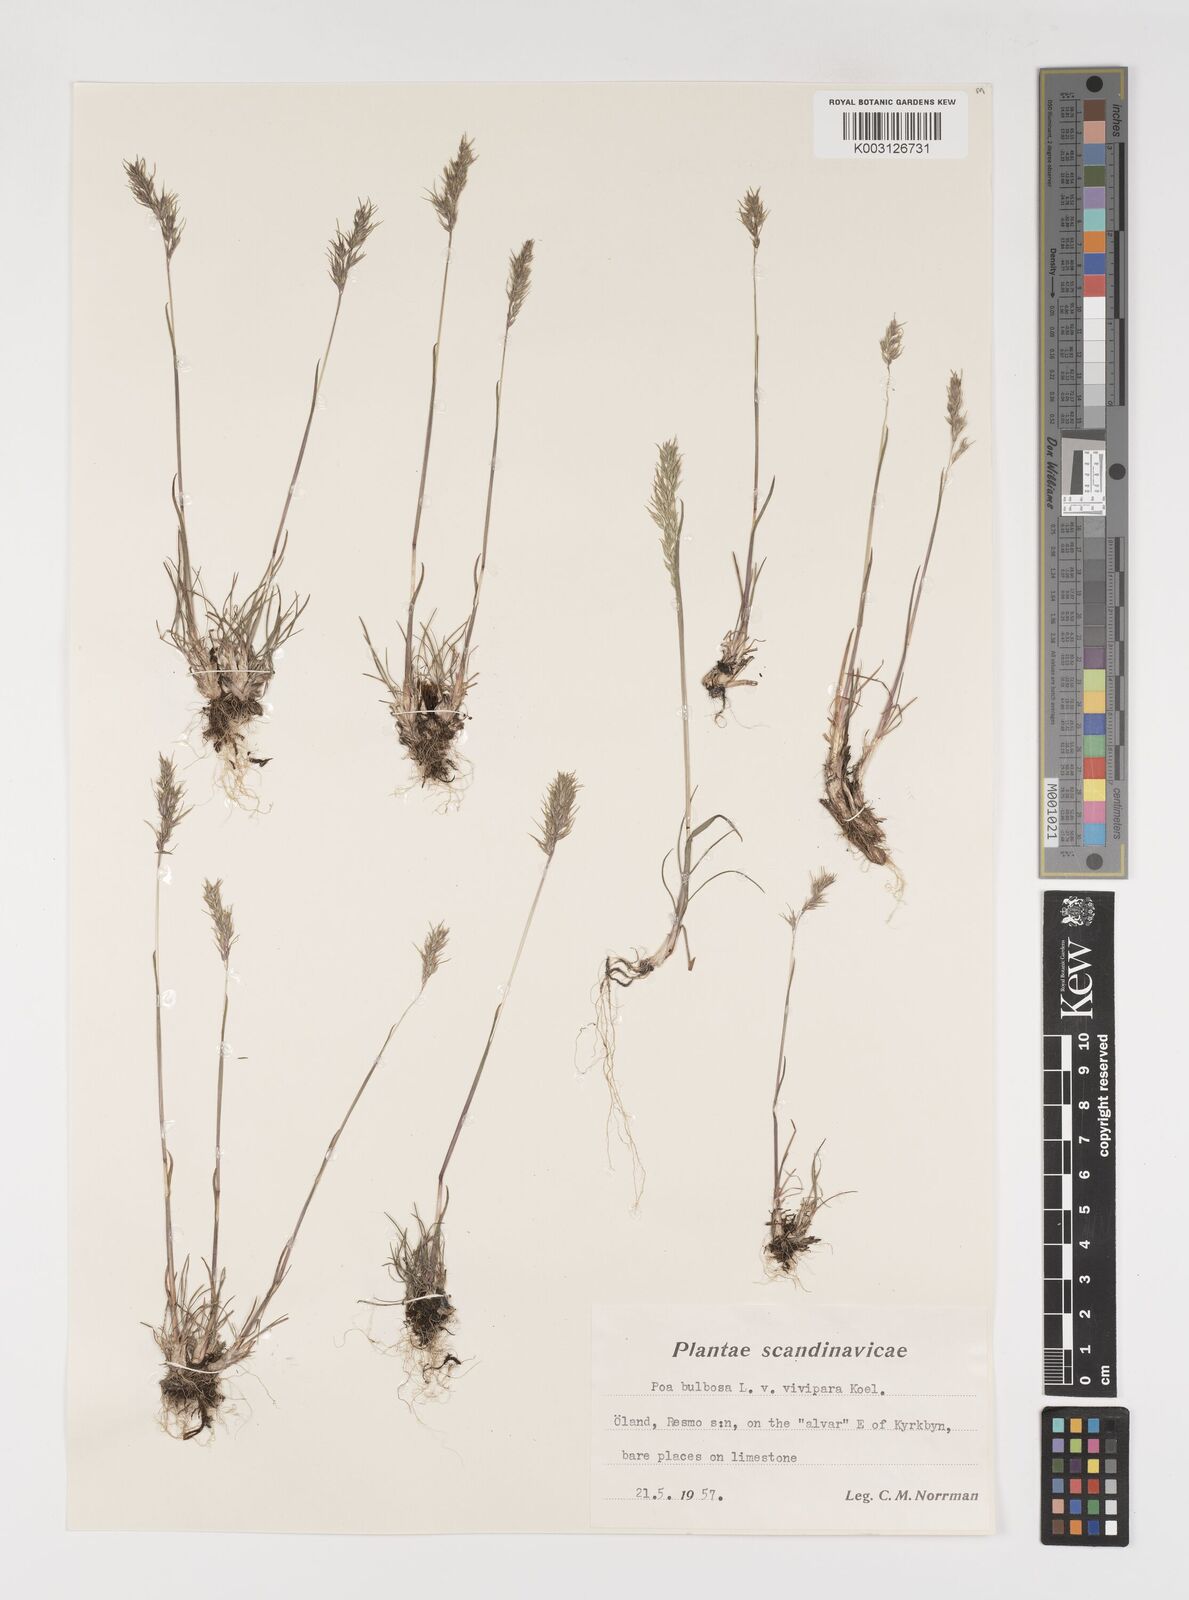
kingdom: Plantae
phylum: Tracheophyta
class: Liliopsida
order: Poales
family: Poaceae
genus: Poa
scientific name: Poa bulbosa
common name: Bulbous bluegrass
